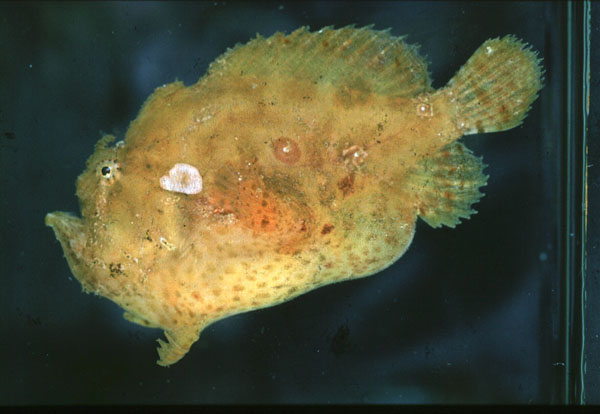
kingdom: Animalia
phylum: Chordata
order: Lophiiformes
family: Antennariidae
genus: Antennatus
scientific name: Antennatus coccineus
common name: Scarlet frogfish
